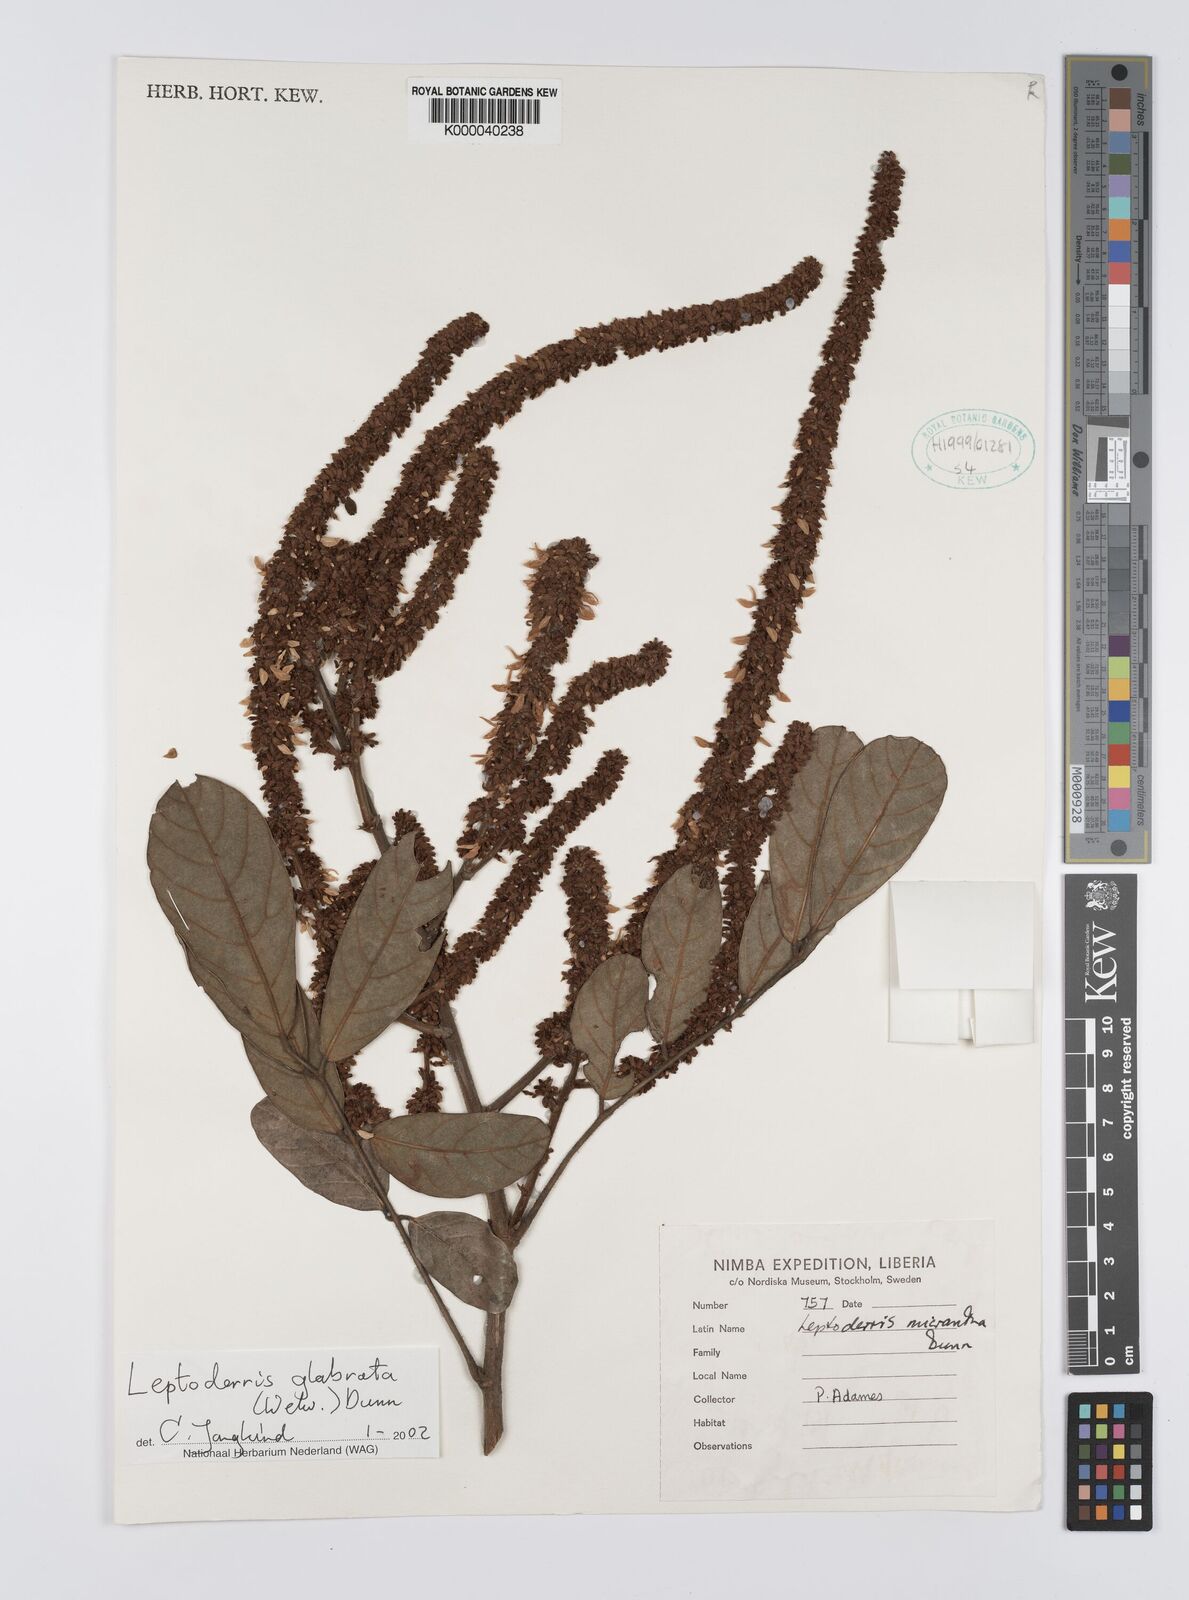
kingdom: Plantae
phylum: Tracheophyta
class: Magnoliopsida
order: Fabales
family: Fabaceae
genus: Leptoderris
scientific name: Leptoderris micrantha
